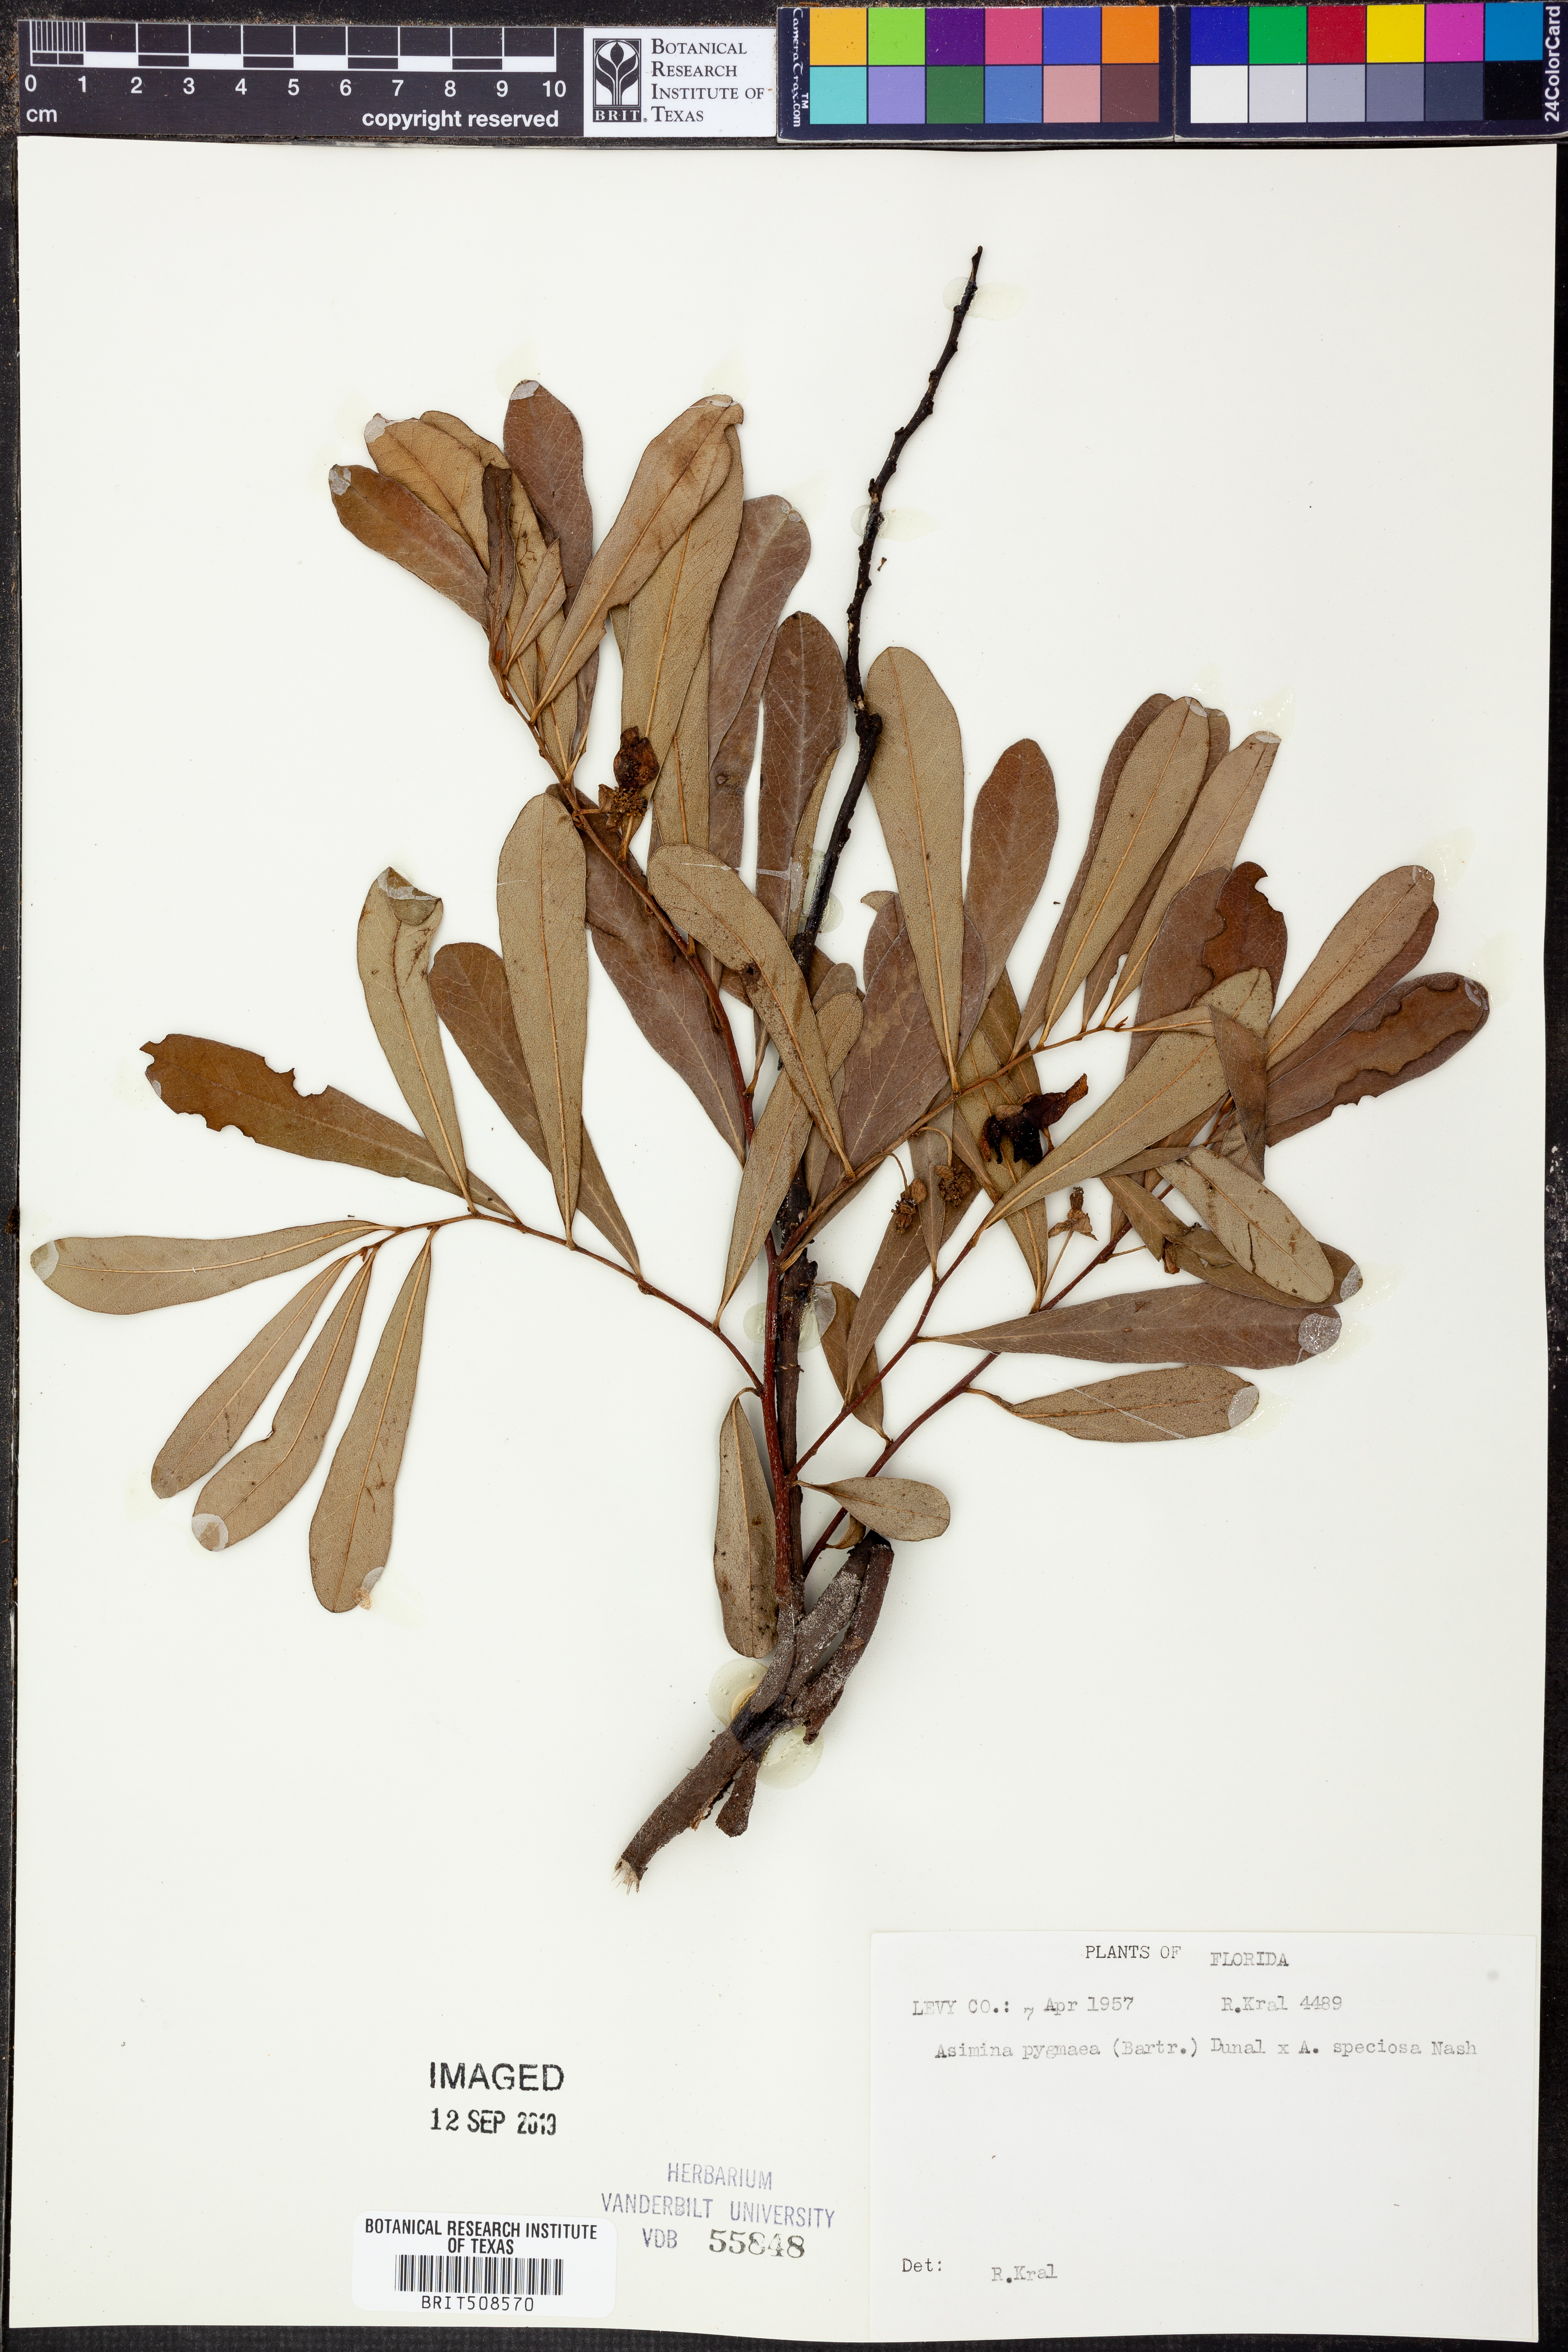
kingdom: Plantae
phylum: Tracheophyta
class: Magnoliopsida
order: Magnoliales
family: Annonaceae
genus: Asimina
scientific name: Asimina pygmaea
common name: Dwarf pawpaw
